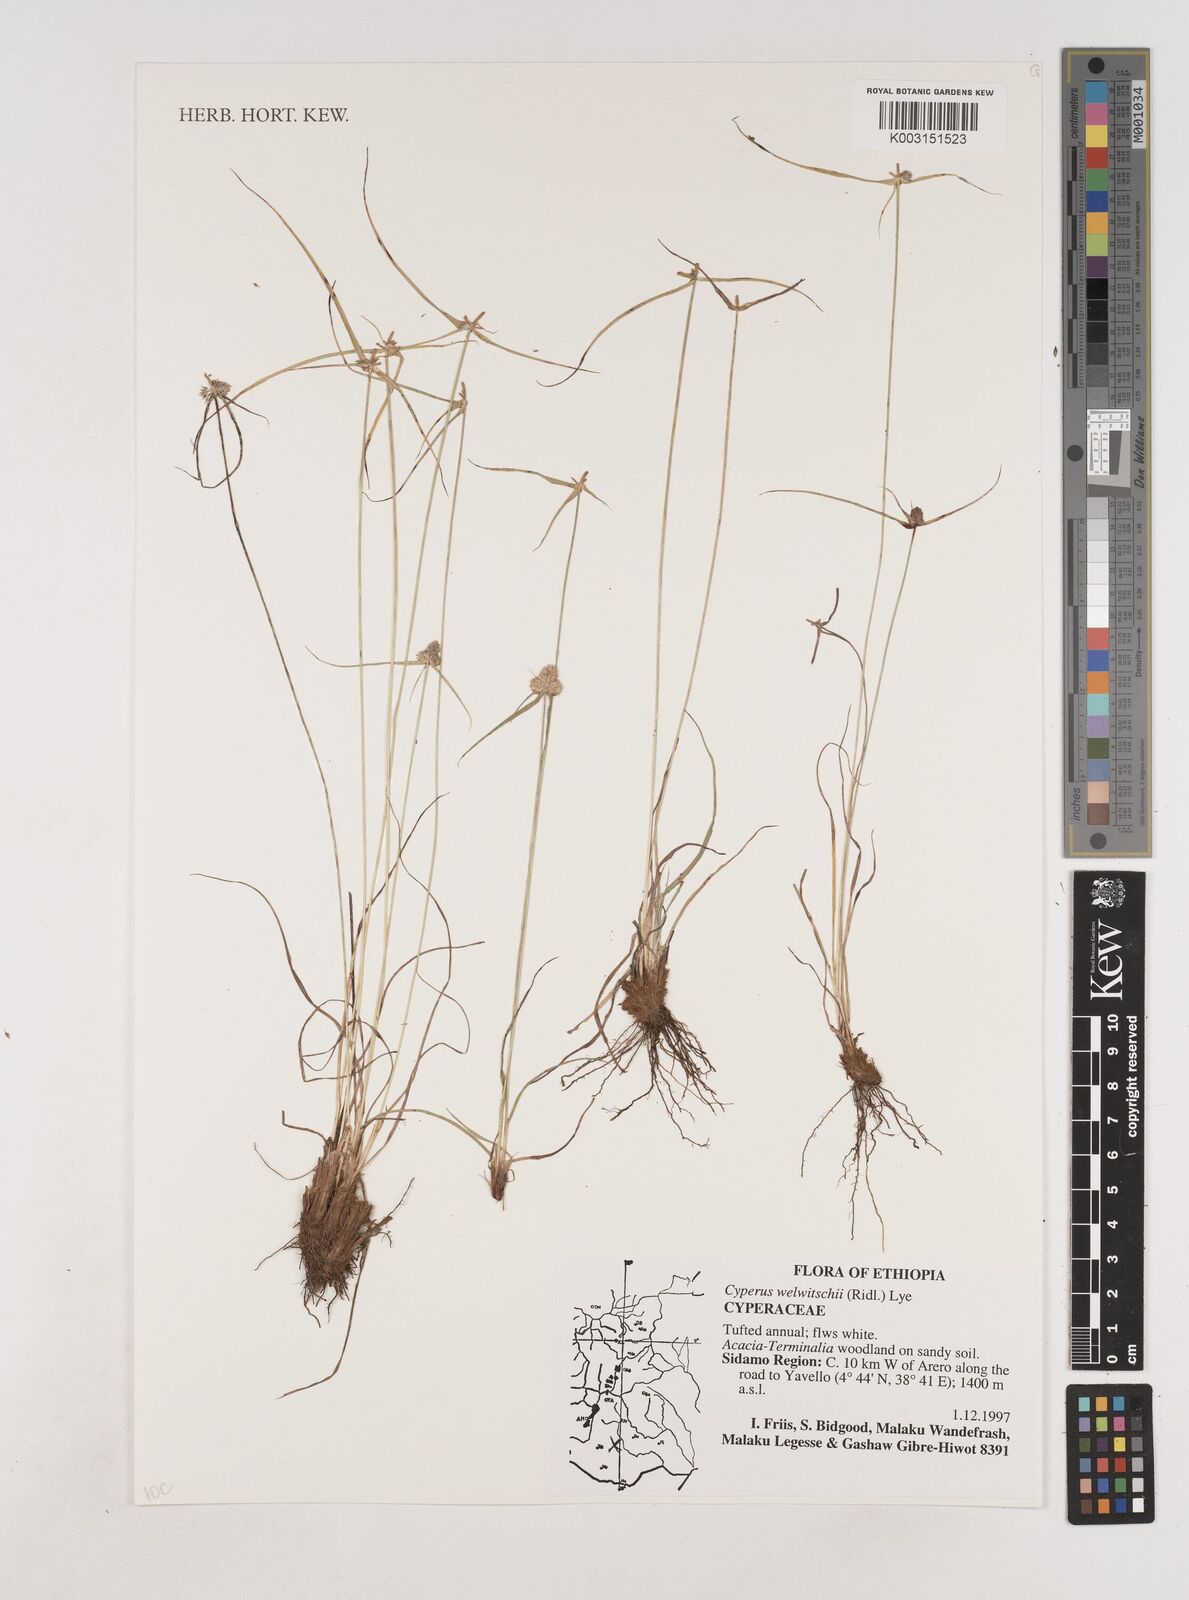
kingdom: Plantae
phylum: Tracheophyta
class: Liliopsida
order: Poales
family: Cyperaceae
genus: Cyperus
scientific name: Cyperus welwitschii
